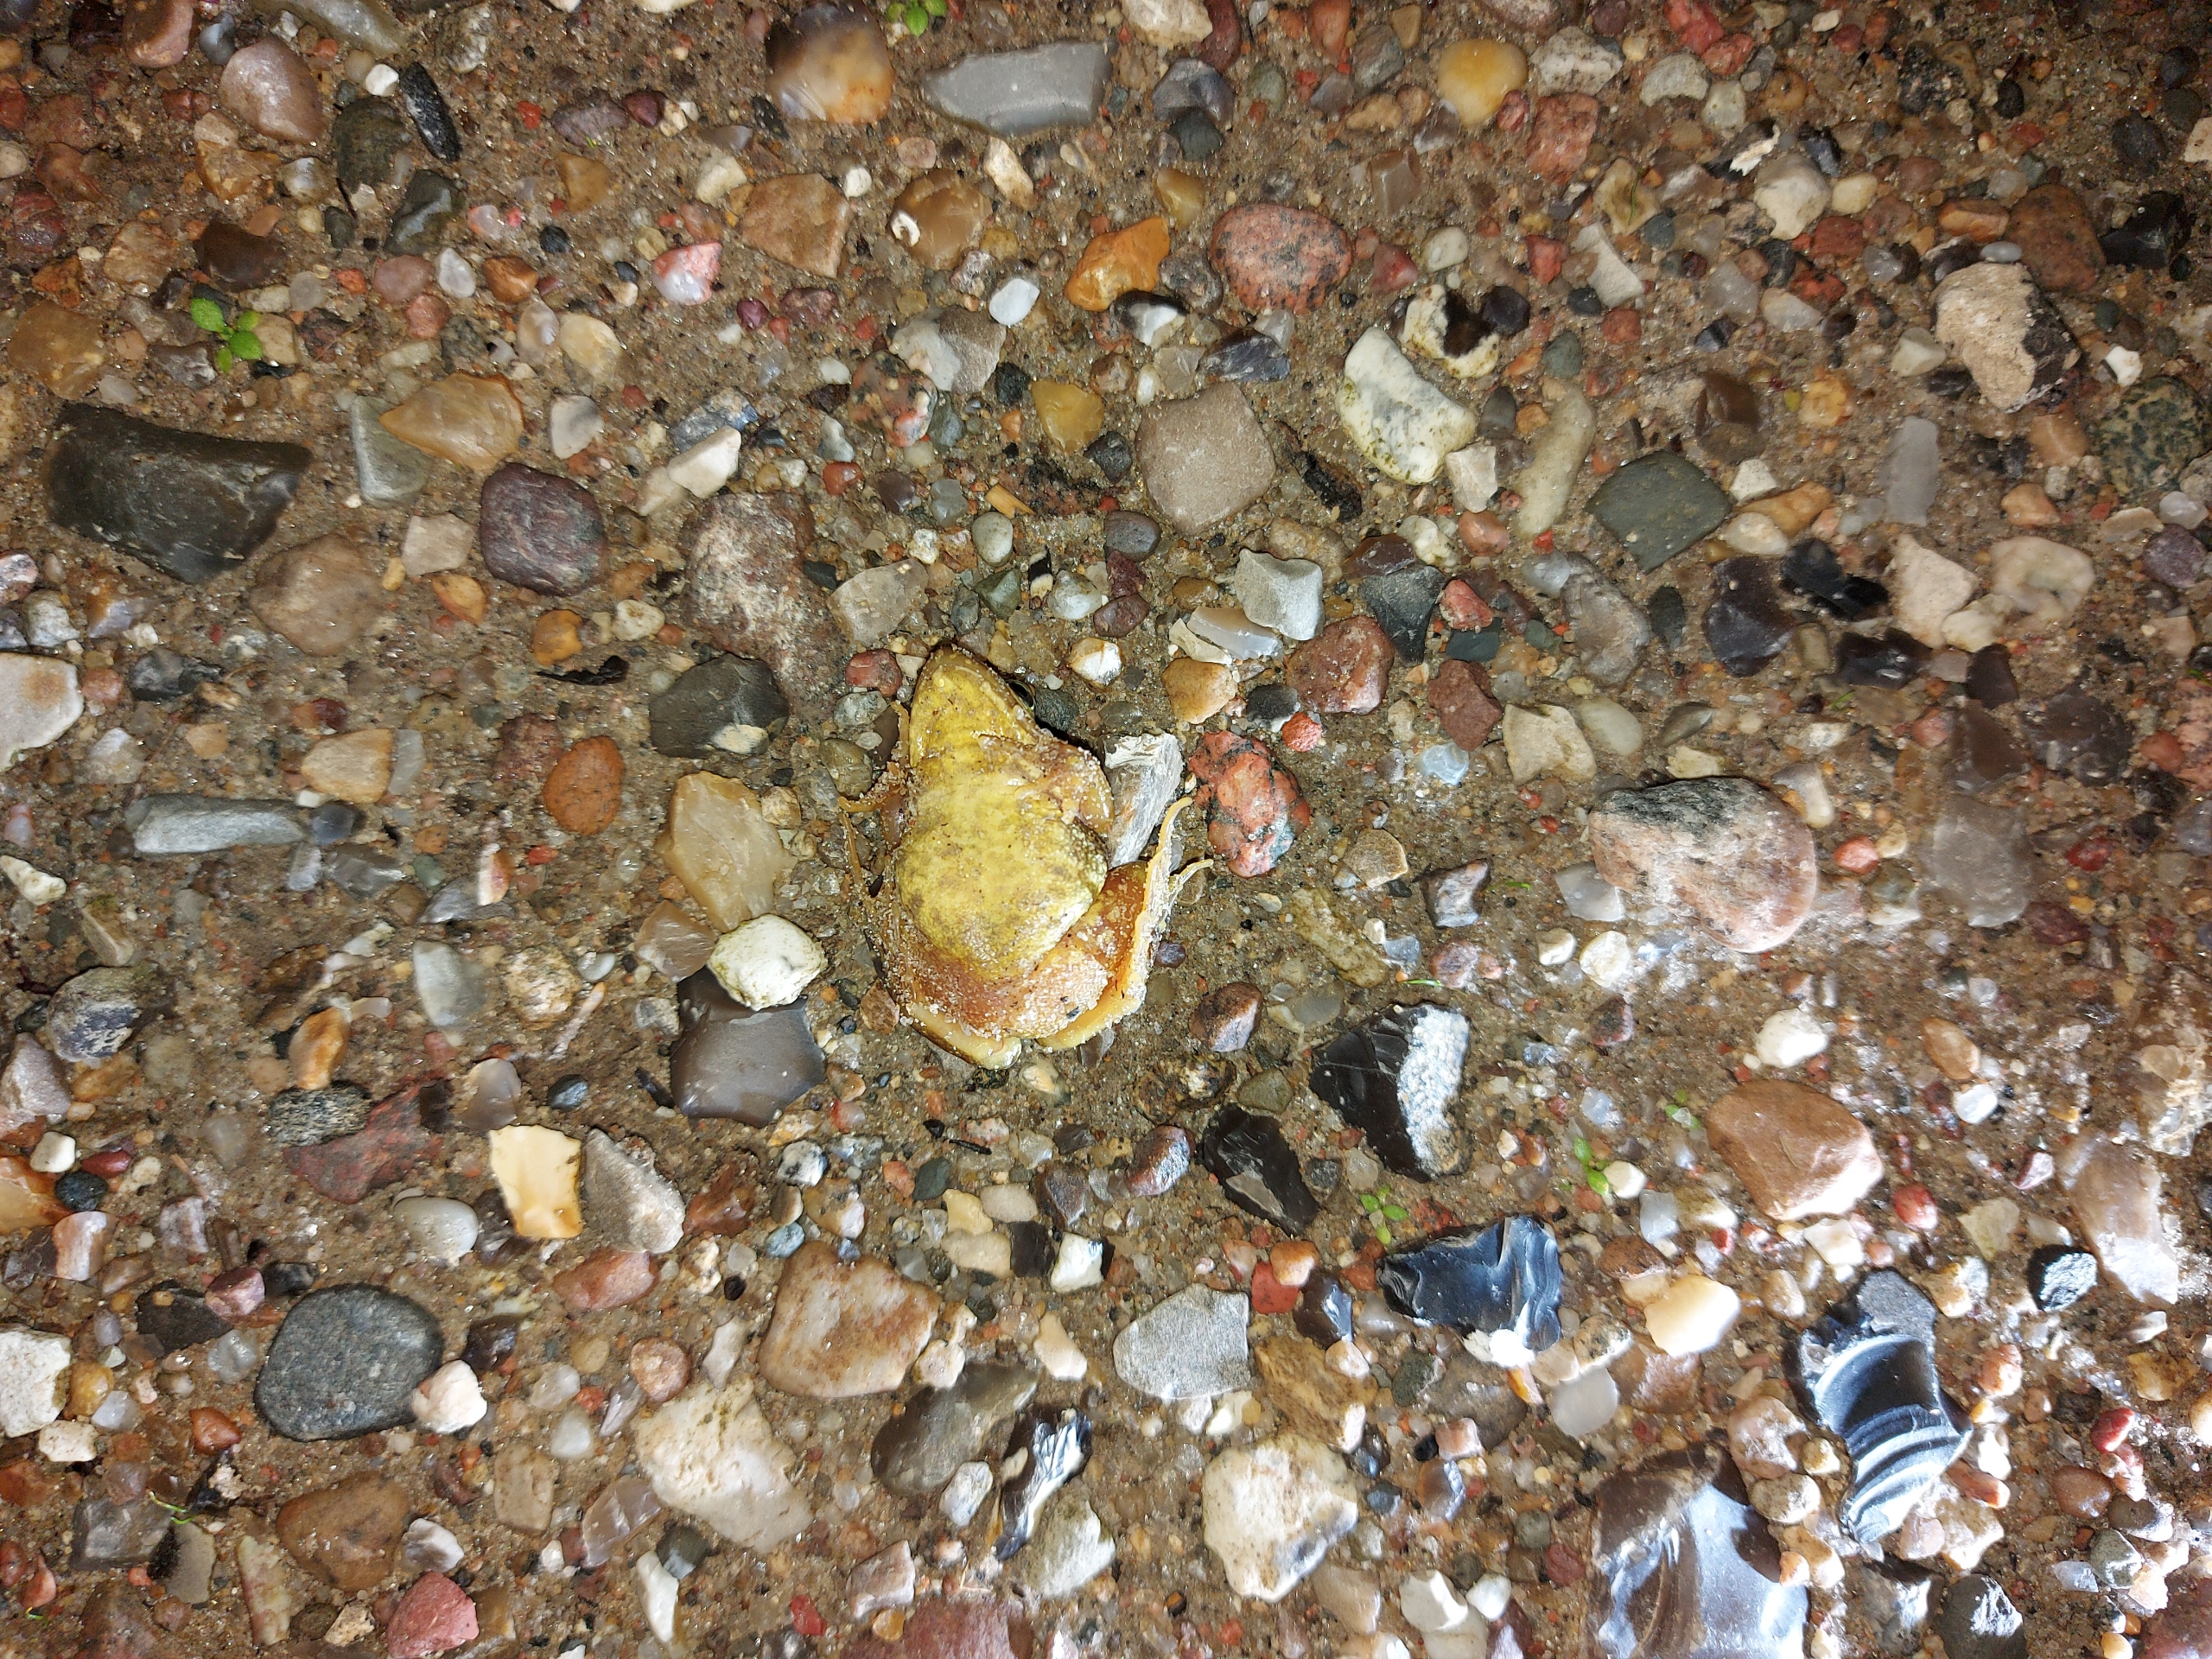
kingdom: Animalia
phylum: Chordata
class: Amphibia
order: Anura
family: Ranidae
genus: Rana
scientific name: Rana temporaria
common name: Butsnudet frø
